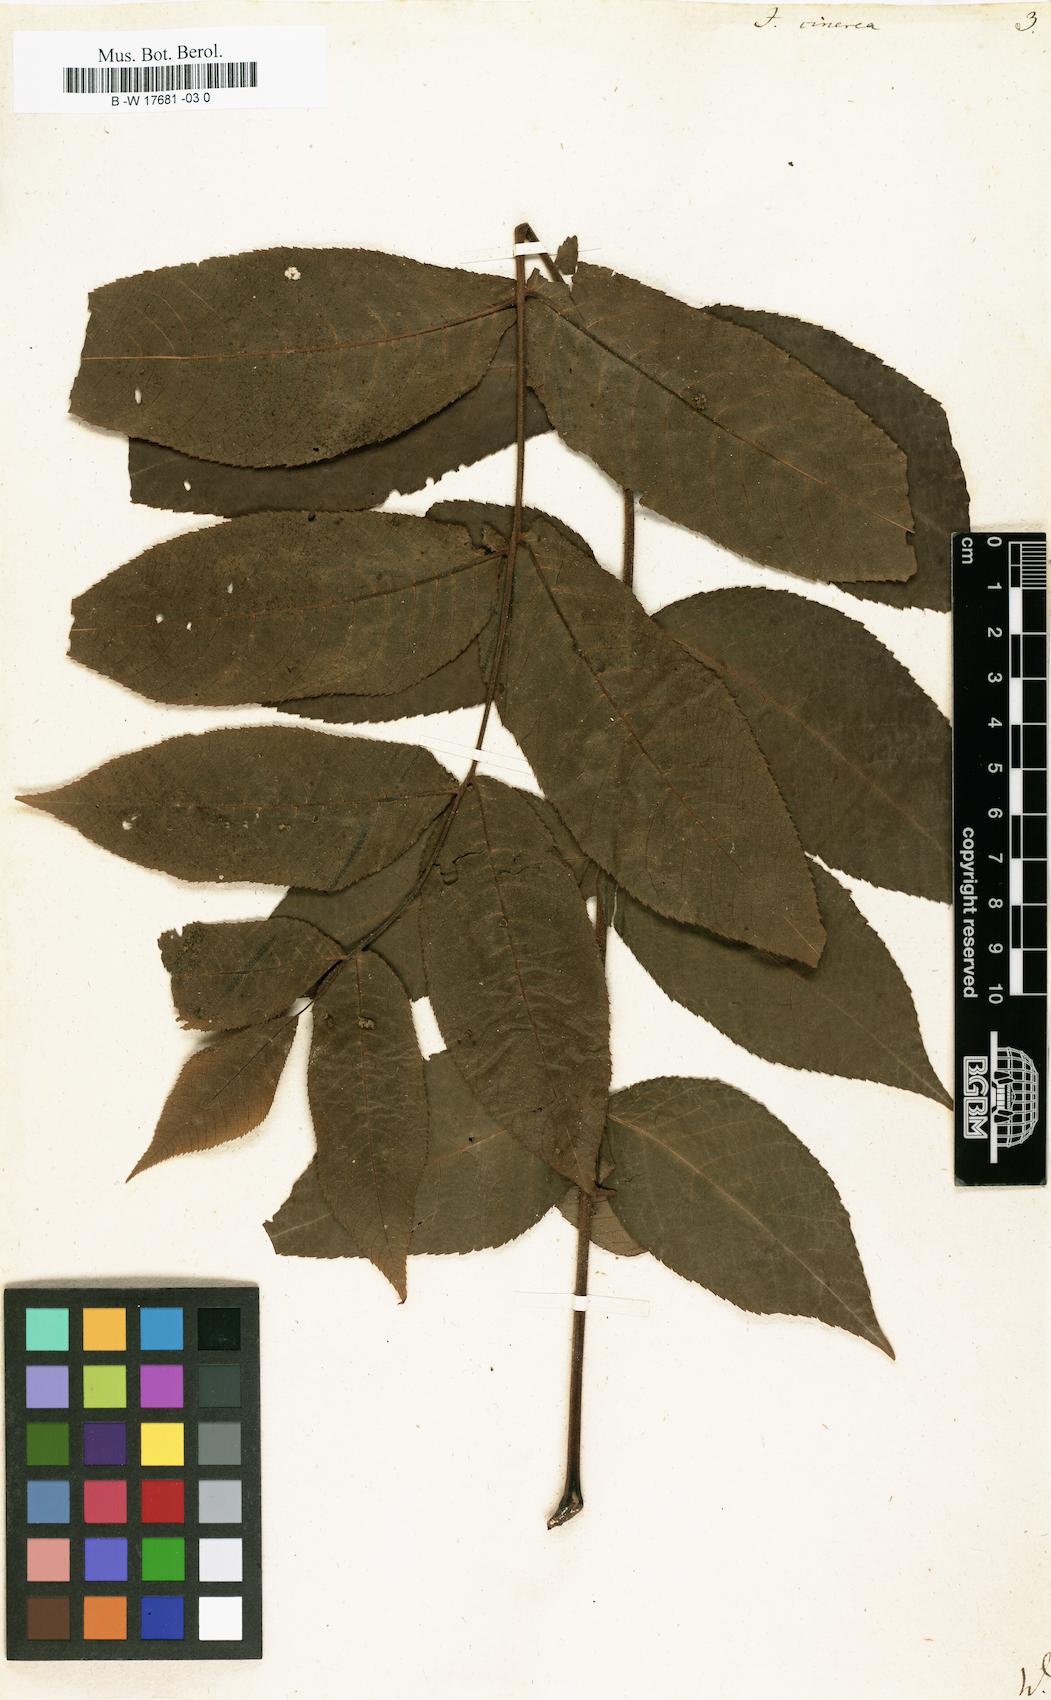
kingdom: Plantae
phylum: Tracheophyta
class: Magnoliopsida
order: Fagales
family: Juglandaceae
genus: Juglans
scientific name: Juglans cinerea
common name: Butternut
